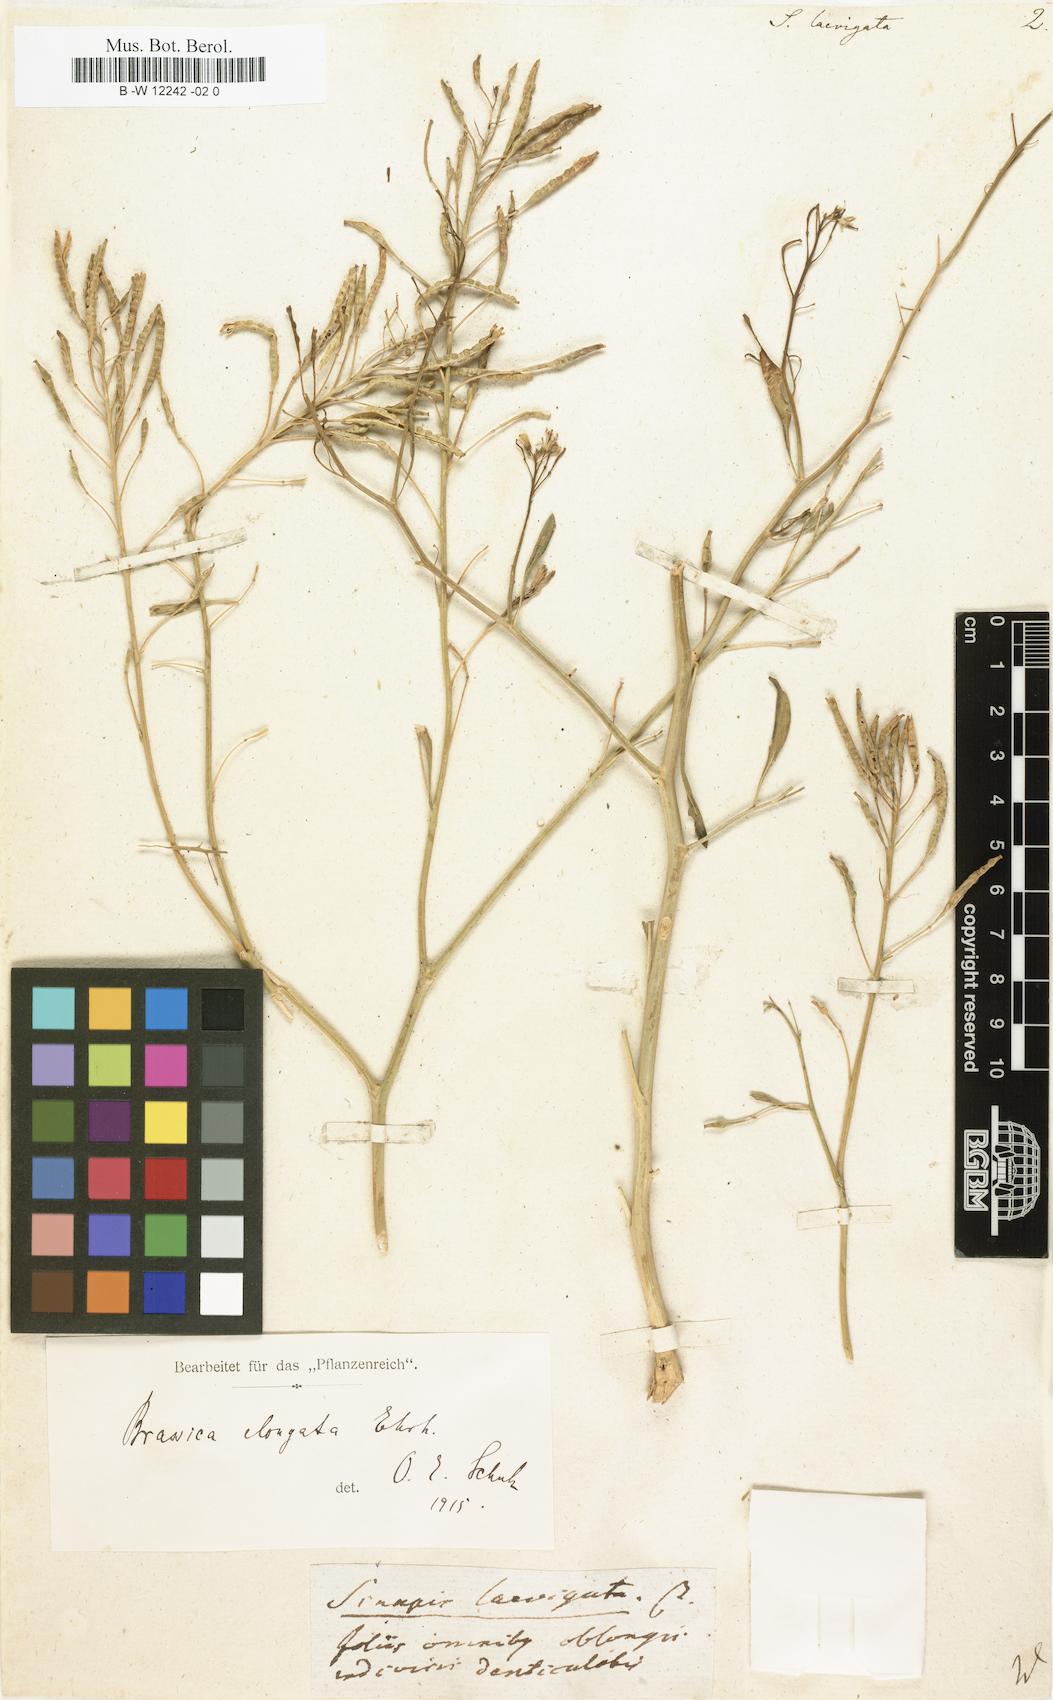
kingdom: Plantae
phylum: Tracheophyta
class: Magnoliopsida
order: Brassicales
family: Brassicaceae
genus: Erucastrum
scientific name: Erucastrum virgatum
